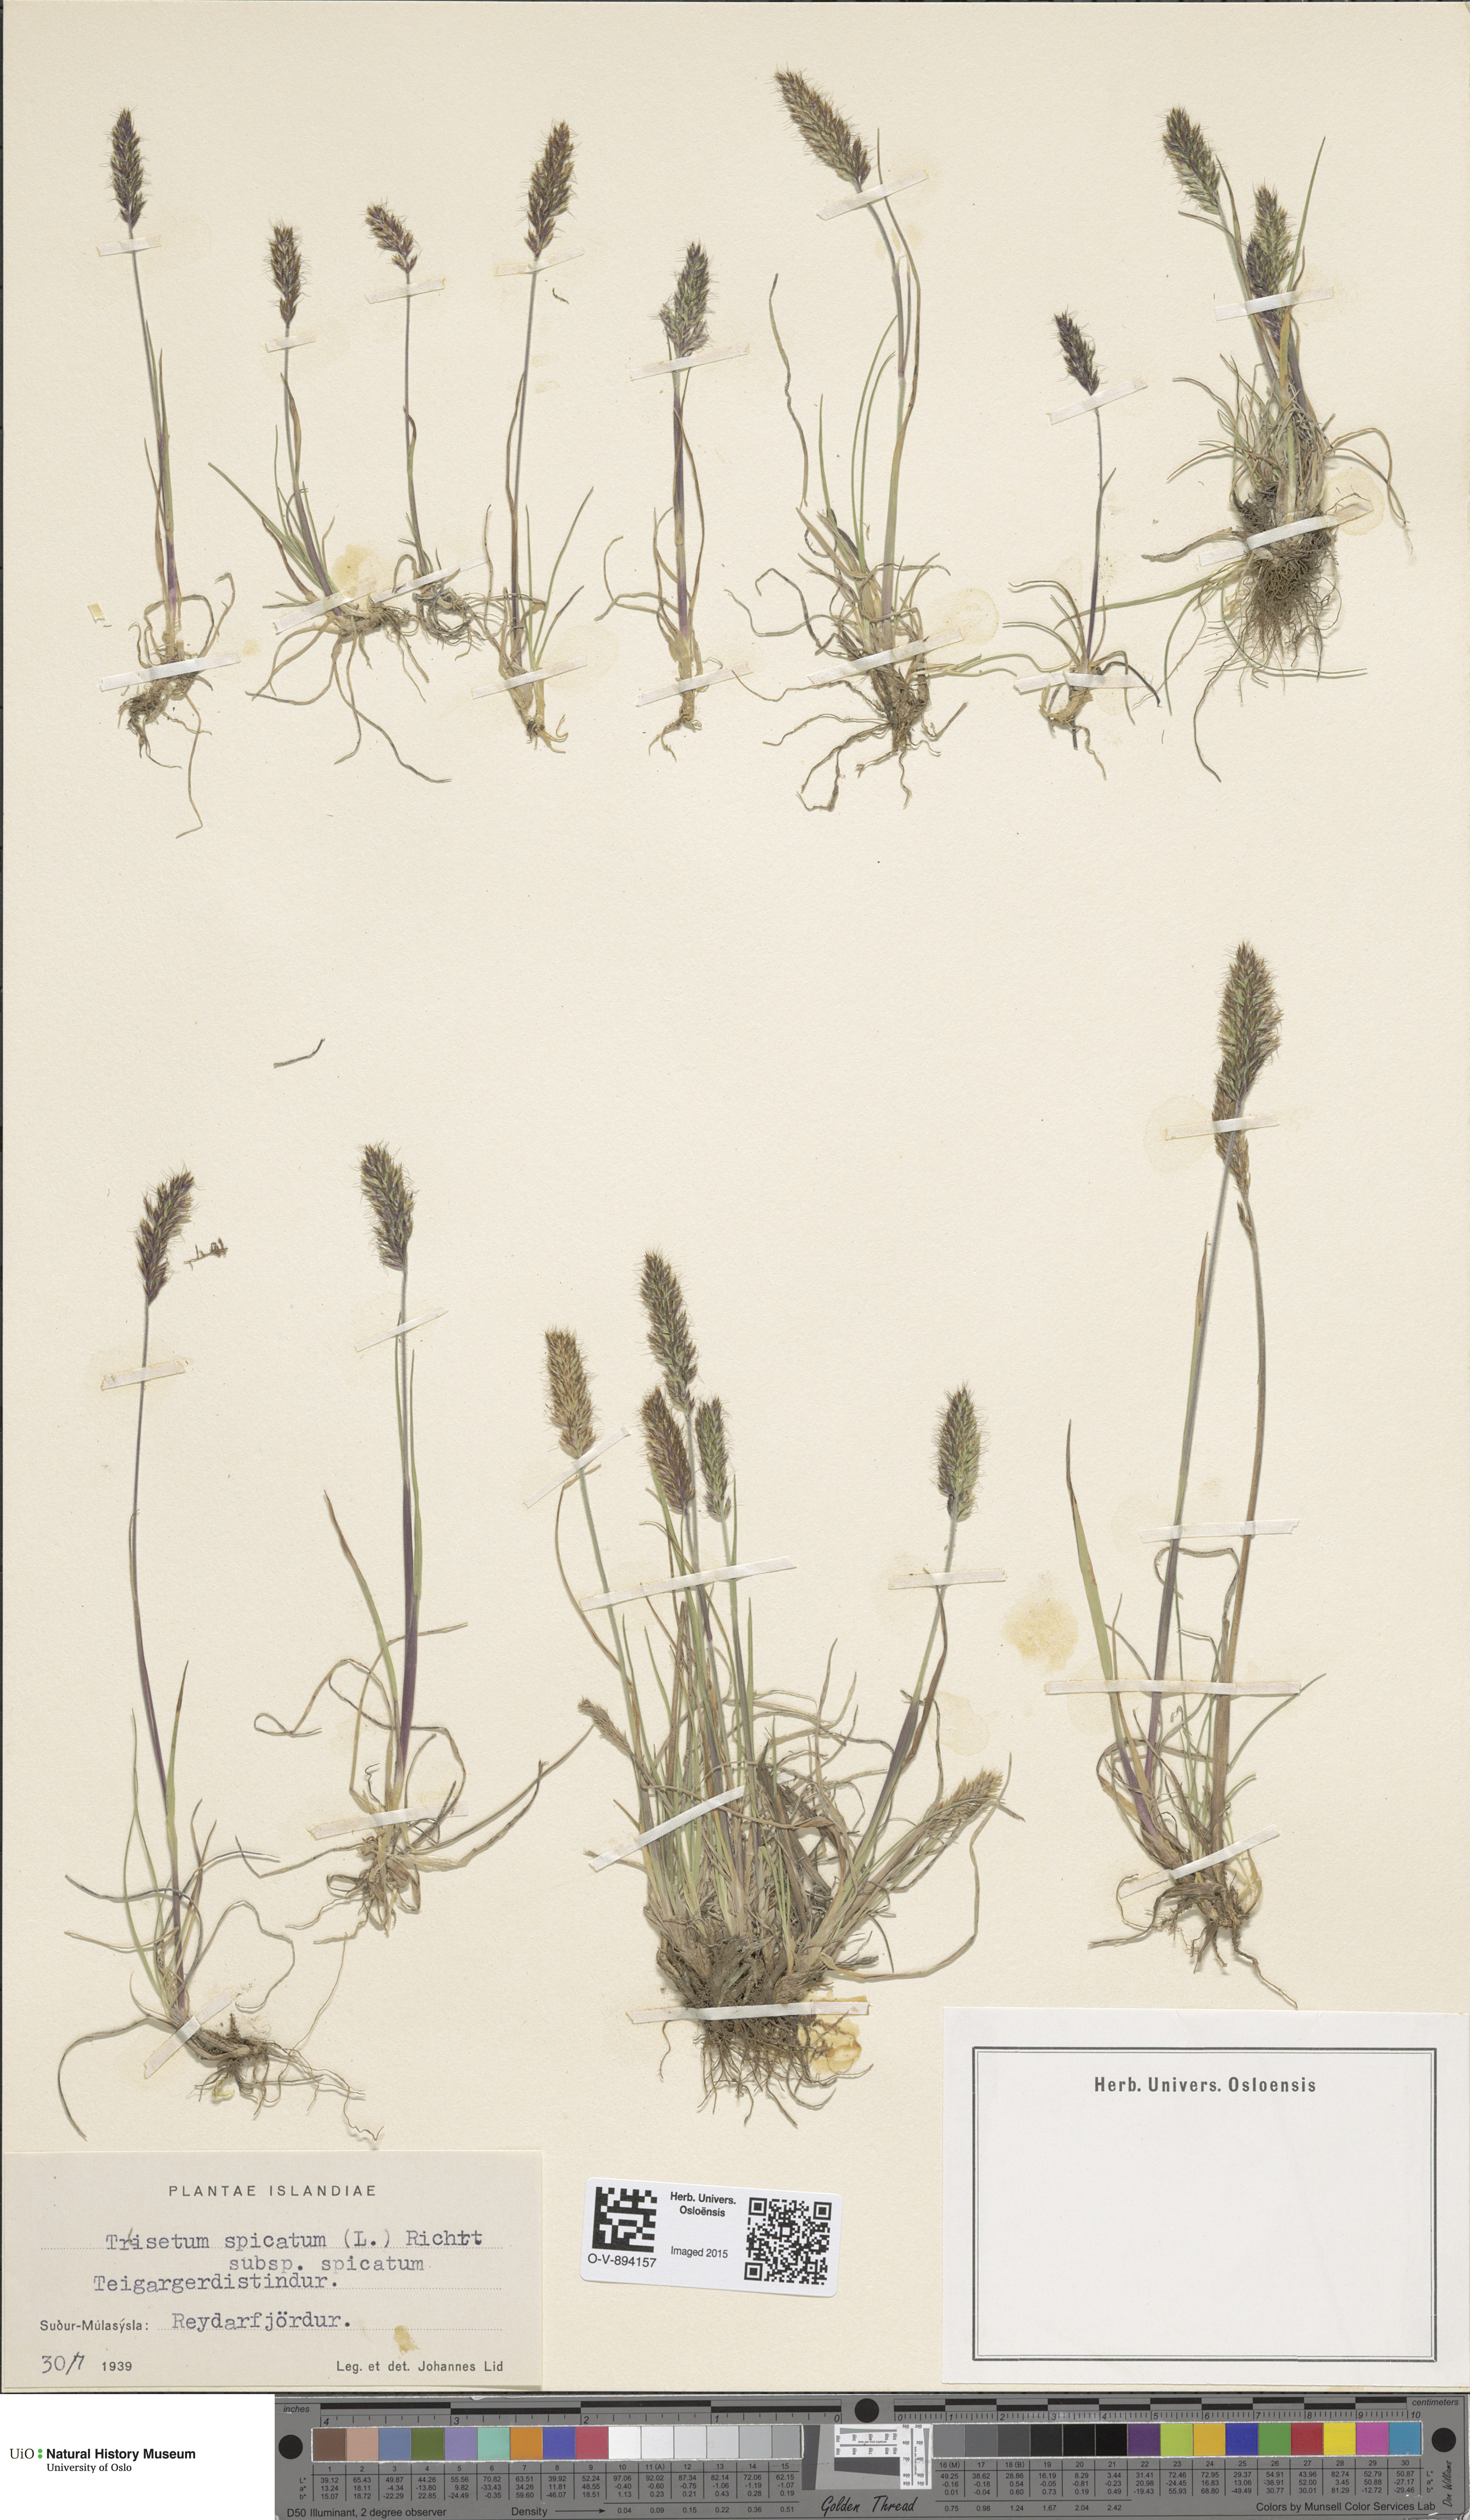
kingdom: Plantae
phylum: Tracheophyta
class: Liliopsida
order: Poales
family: Poaceae
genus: Koeleria
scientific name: Koeleria spicata
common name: Mountain trisetum
